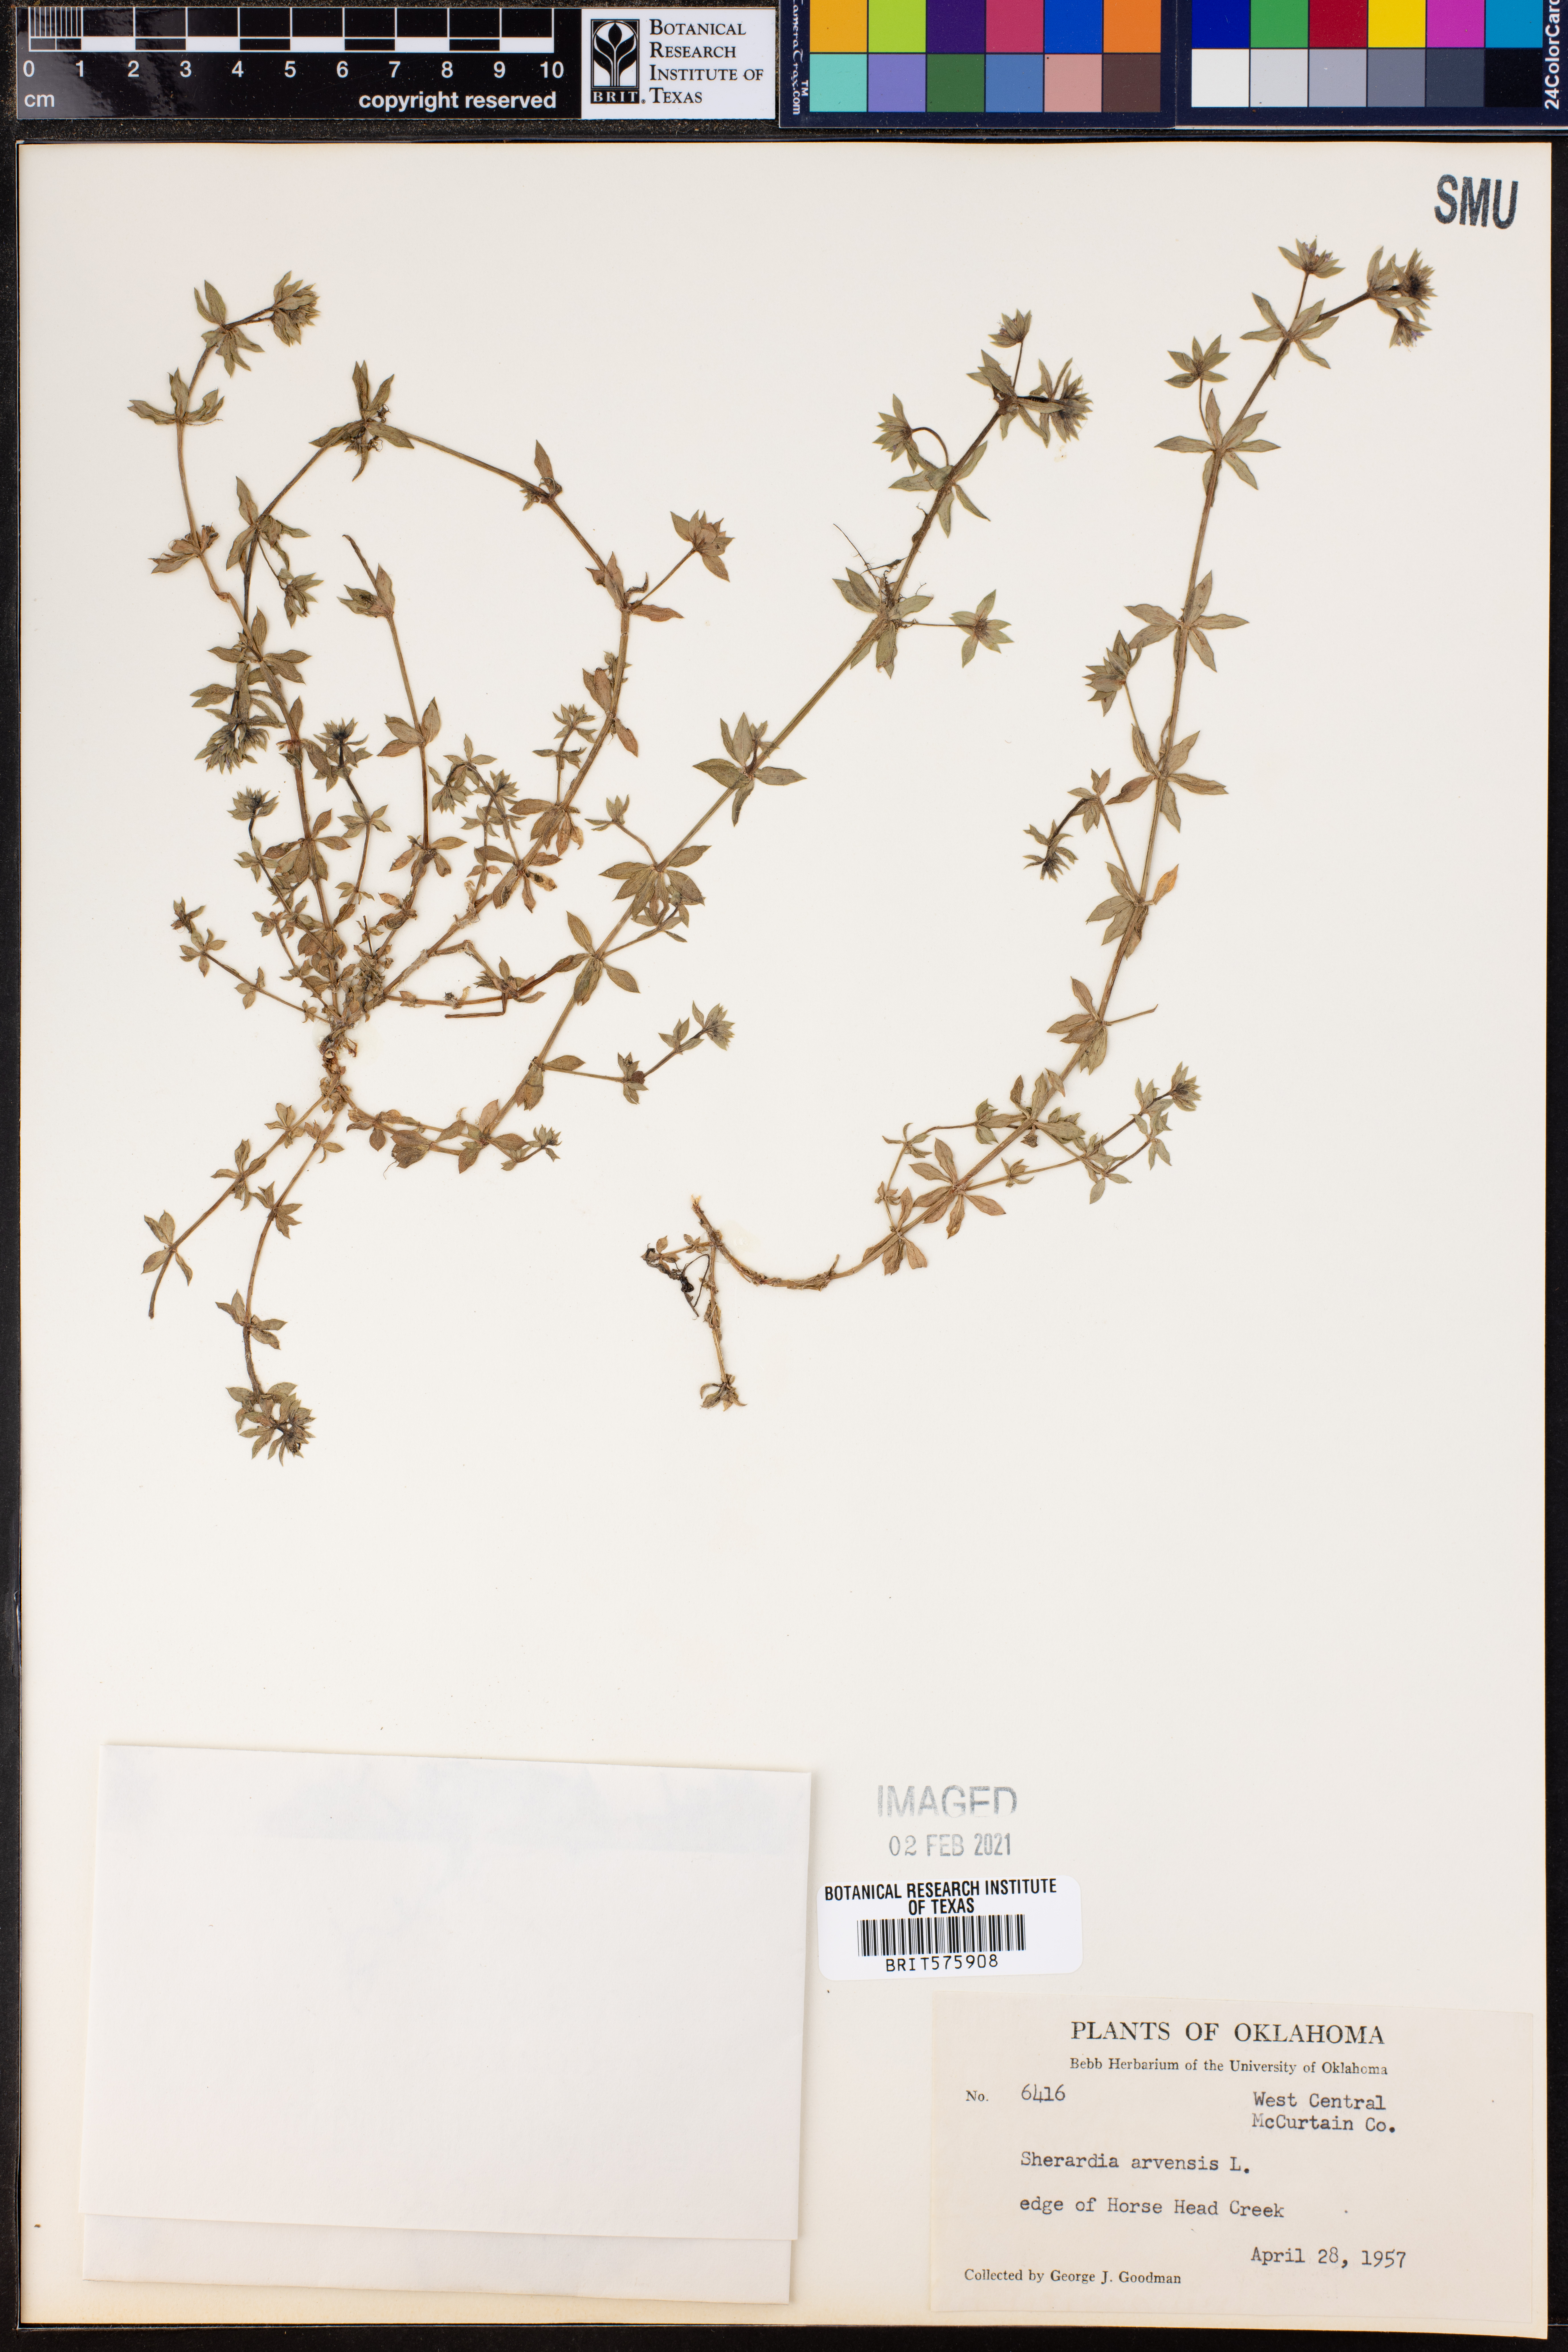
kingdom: Plantae
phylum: Tracheophyta
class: Magnoliopsida
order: Gentianales
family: Rubiaceae
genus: Sherardia
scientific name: Sherardia arvensis
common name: Field madder
